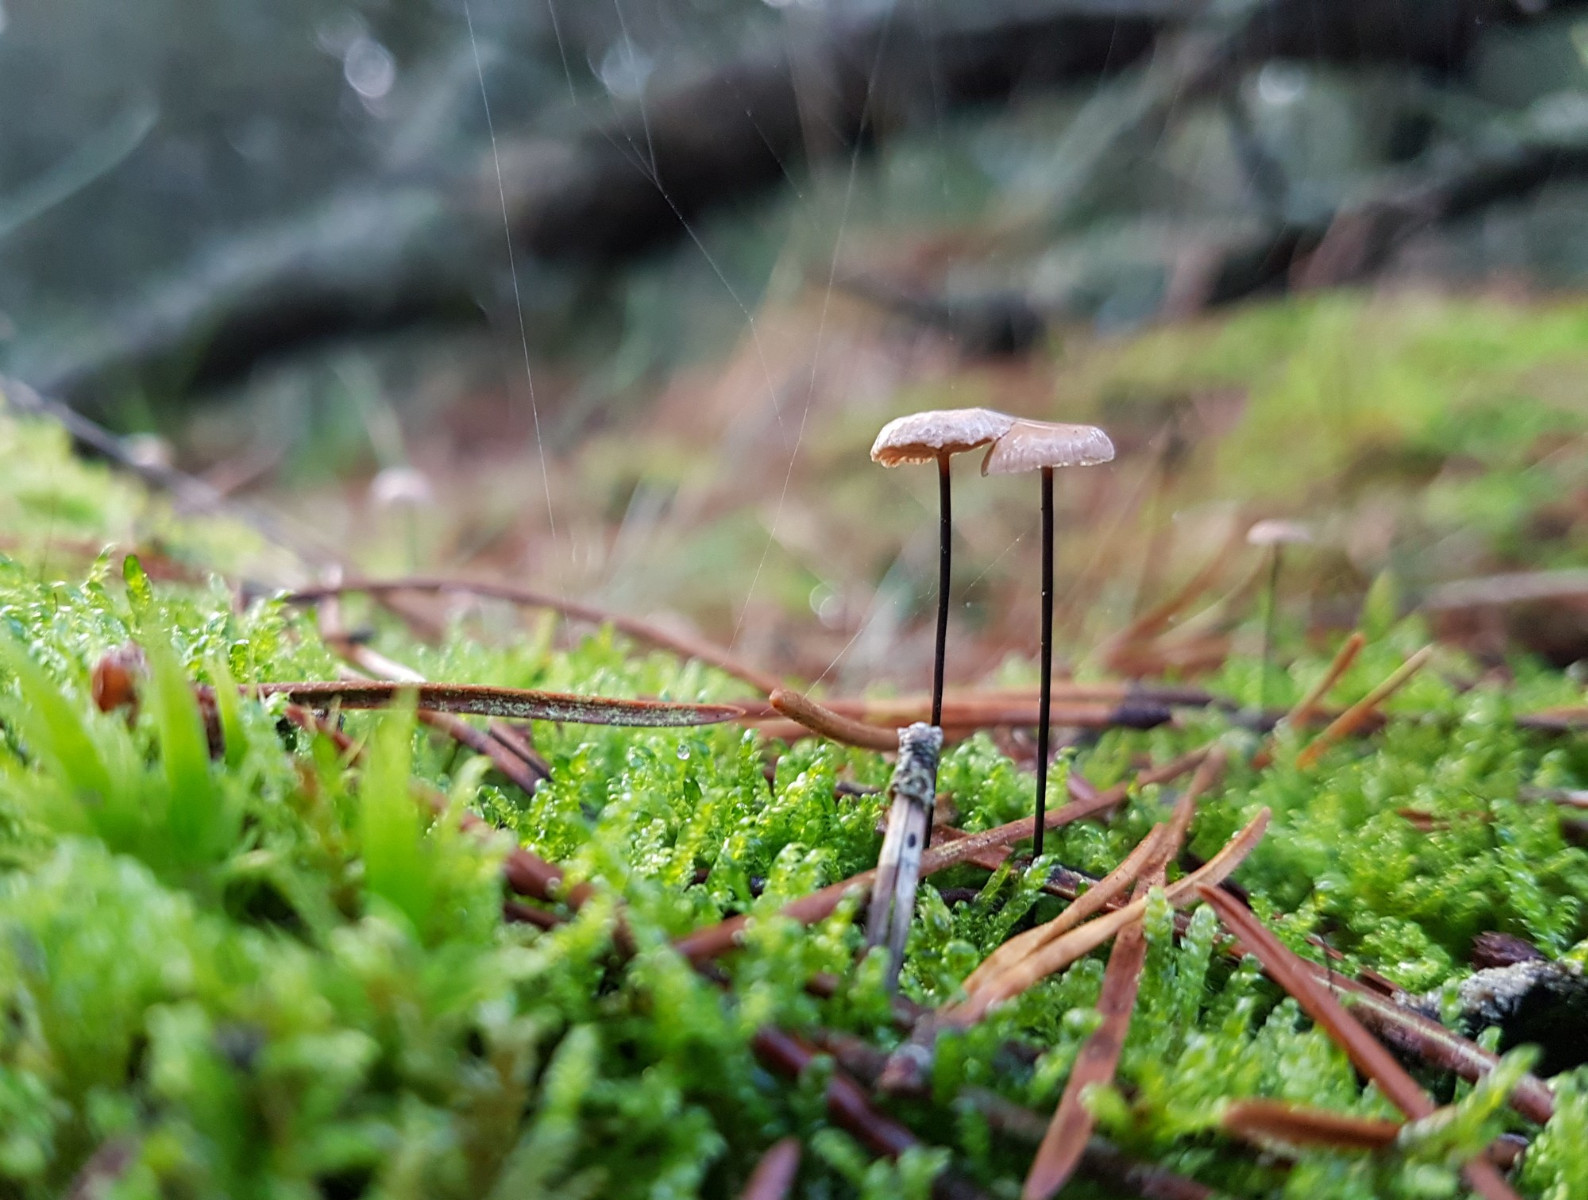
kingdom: Fungi
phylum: Basidiomycota
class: Agaricomycetes
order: Agaricales
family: Omphalotaceae
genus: Gymnopus
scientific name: Gymnopus androsaceus
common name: trådstokket fladhat
